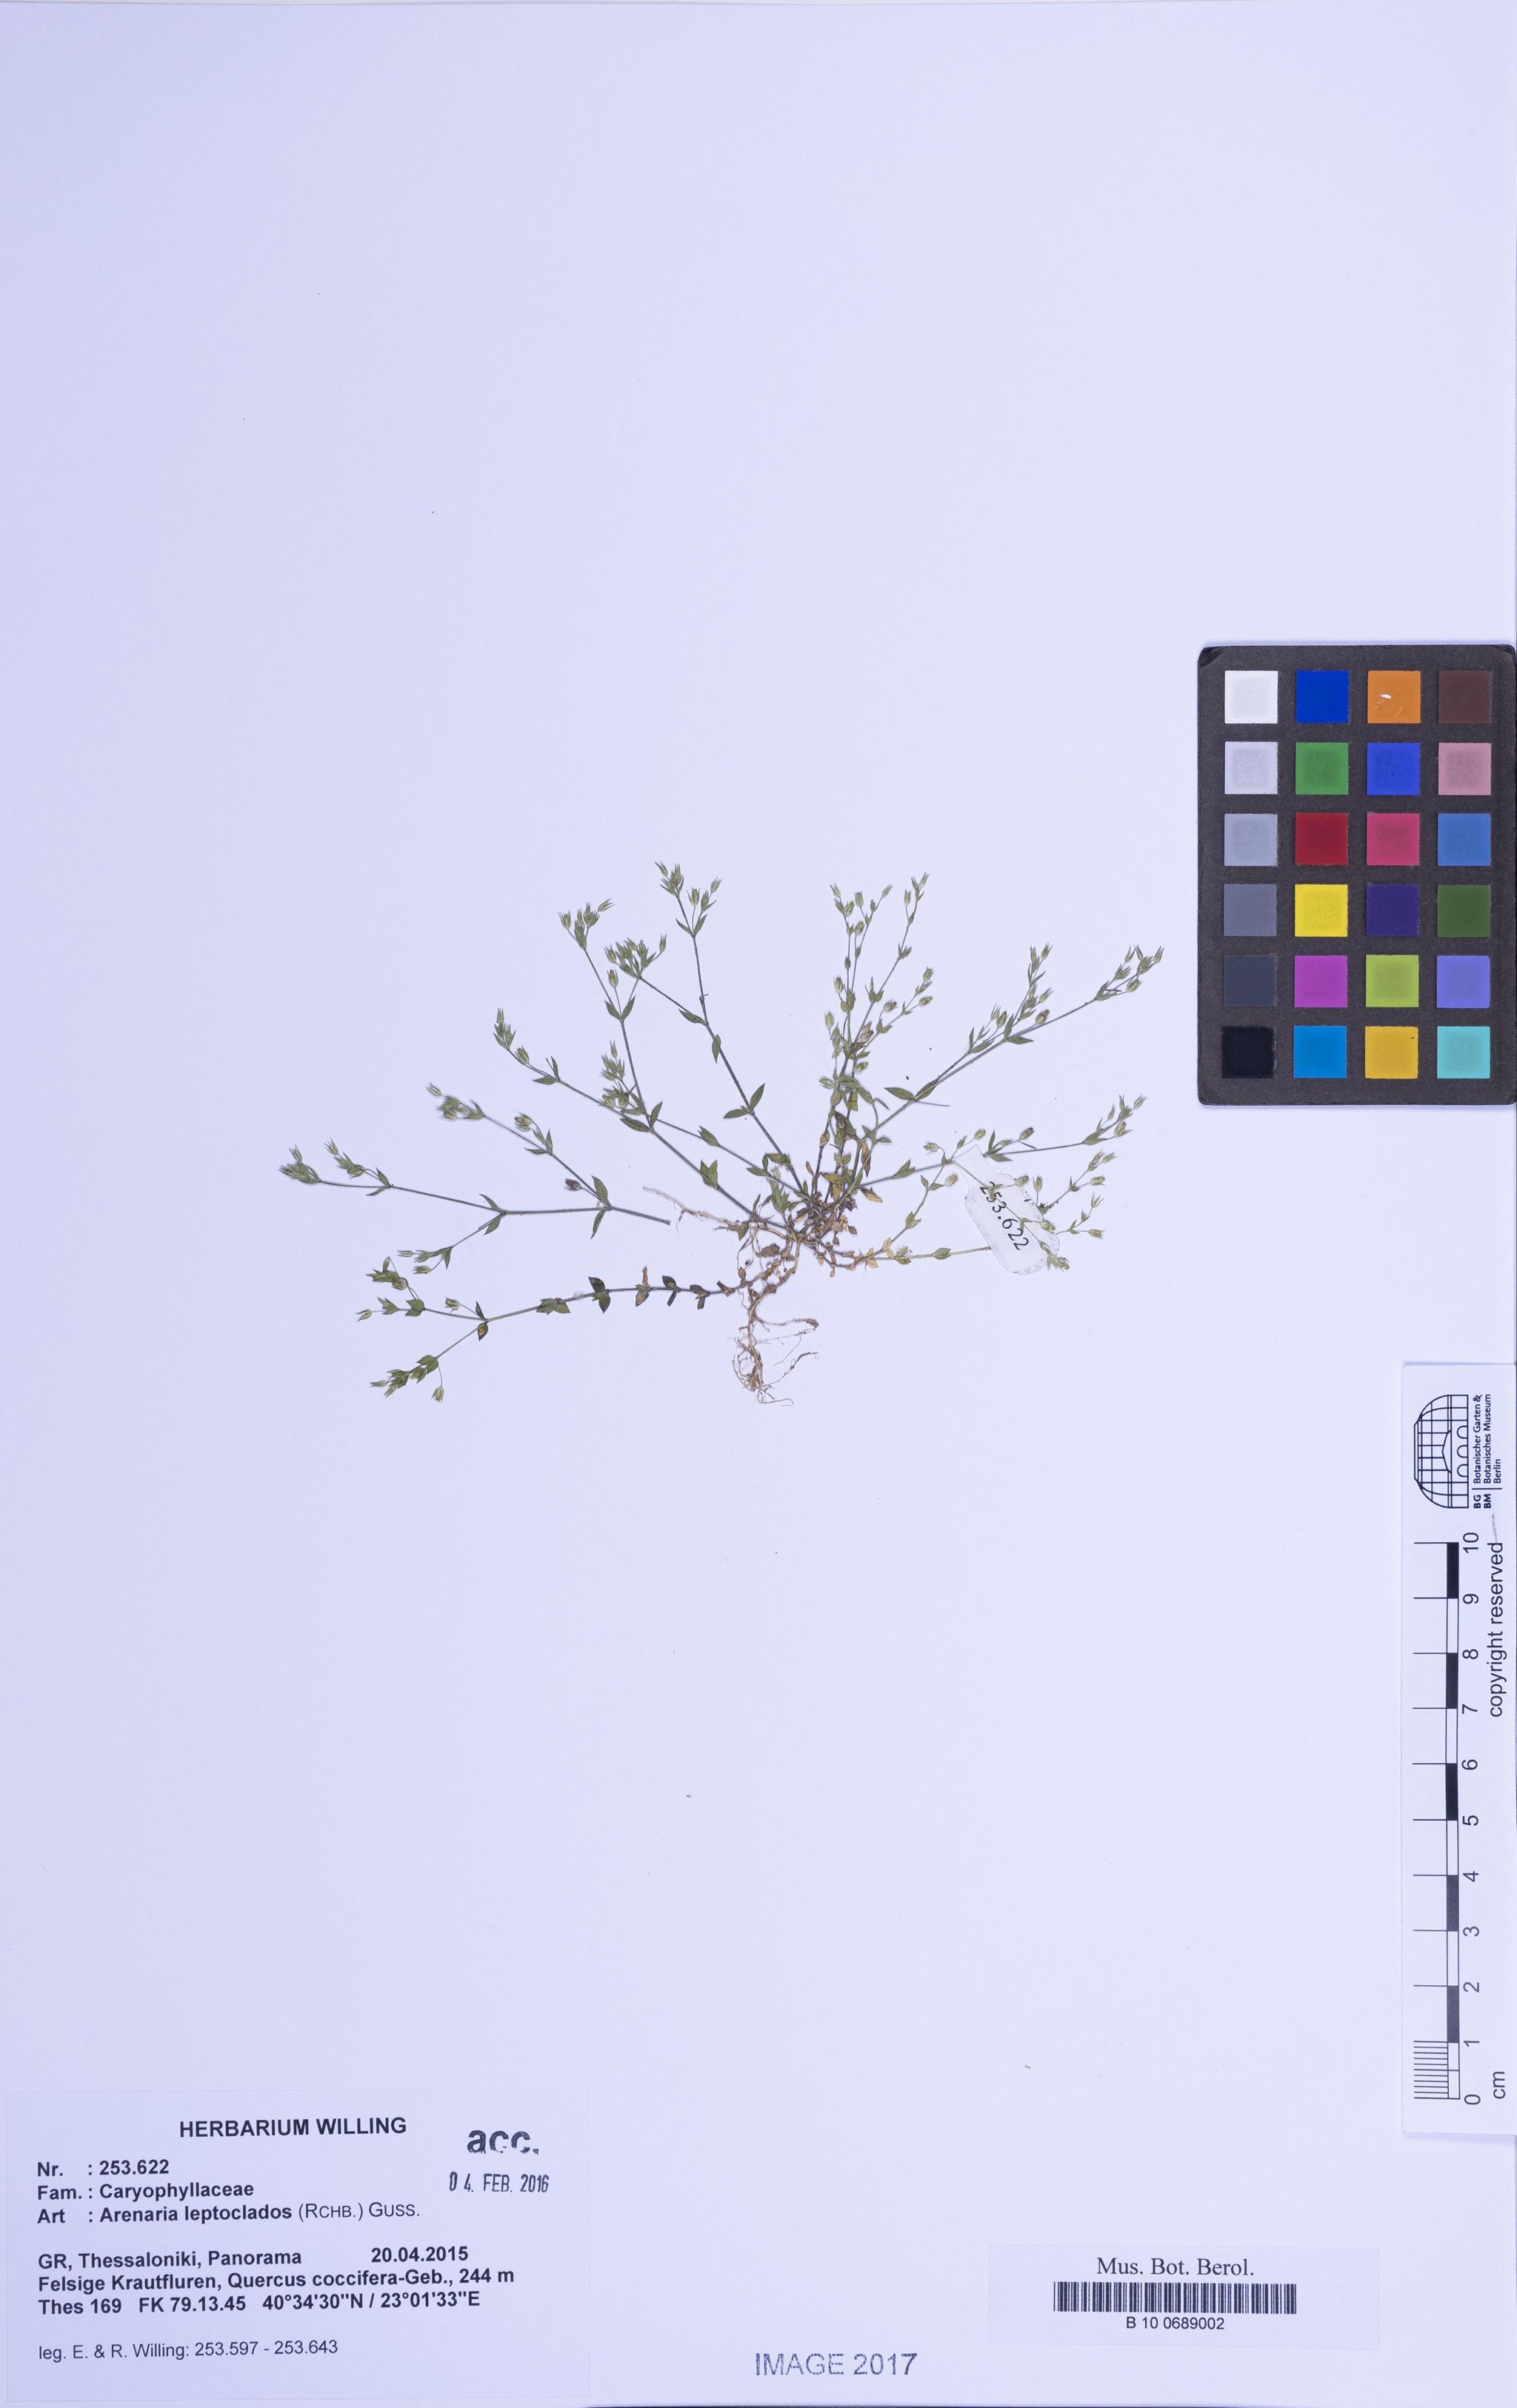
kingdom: Plantae
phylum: Tracheophyta
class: Magnoliopsida
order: Caryophyllales
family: Caryophyllaceae
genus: Arenaria
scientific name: Arenaria leptoclados
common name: Thyme-leaved sandwort
